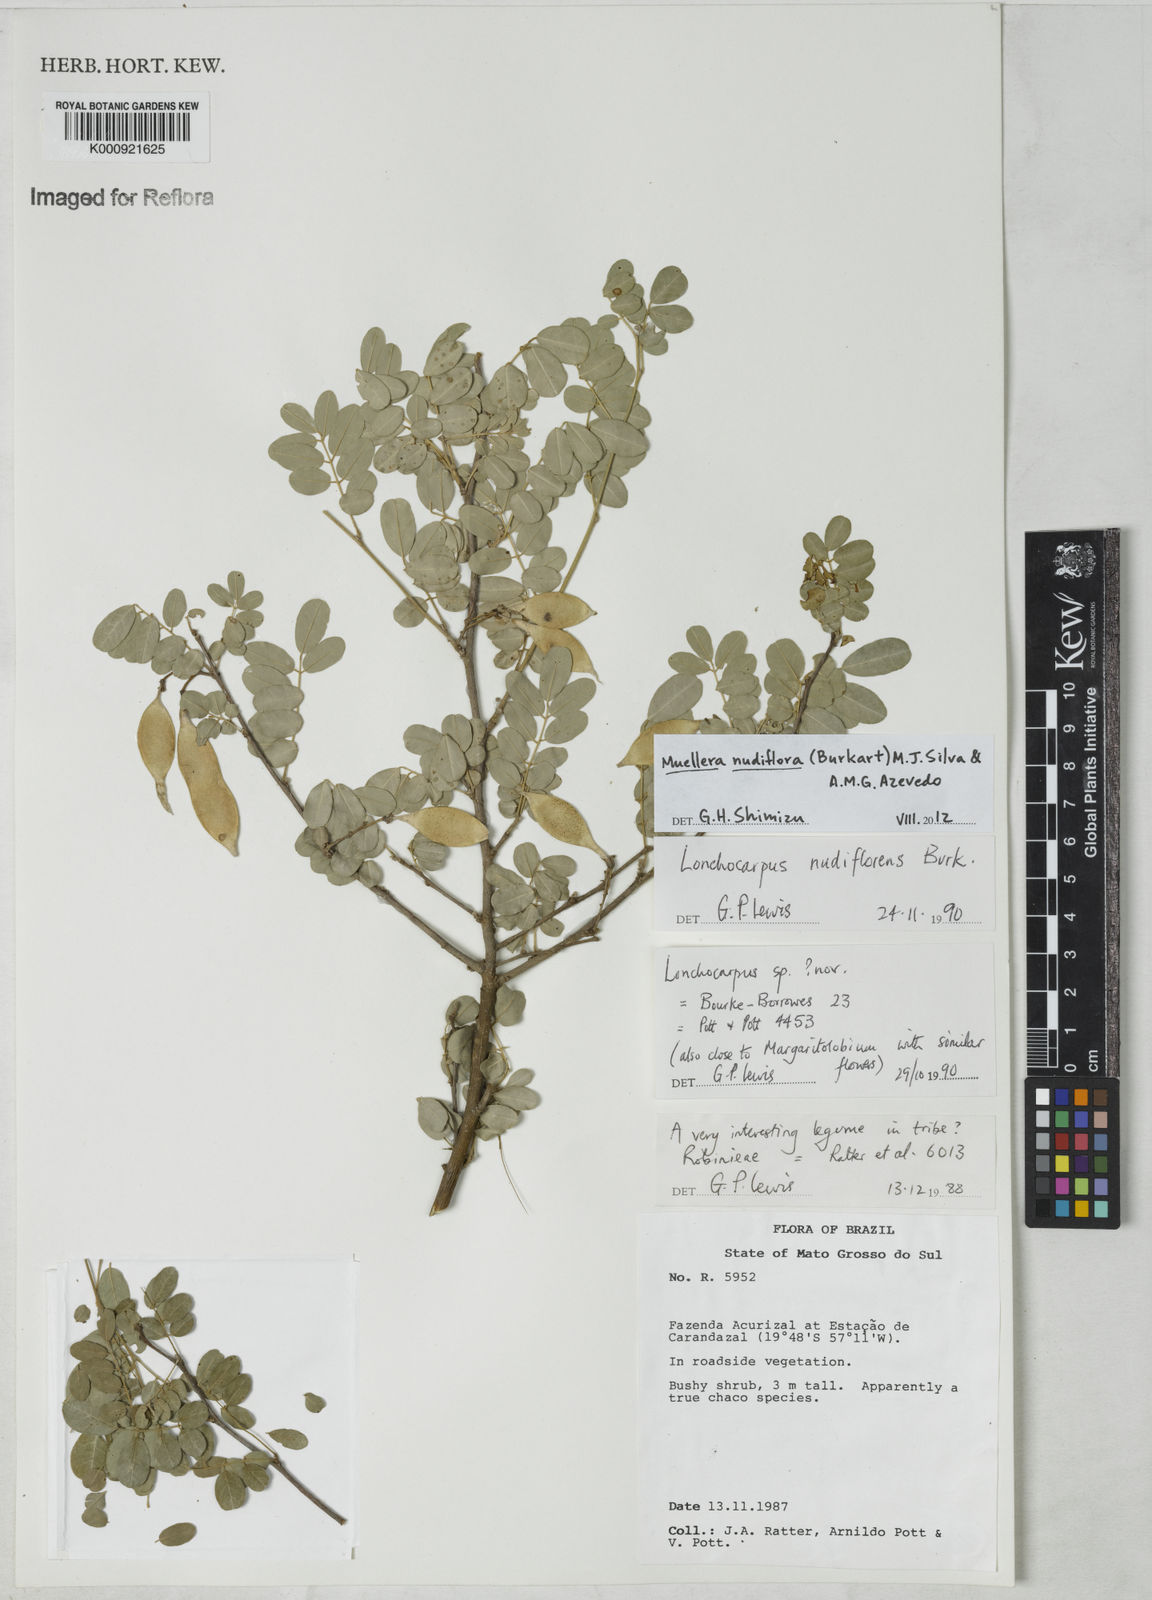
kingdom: Plantae
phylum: Tracheophyta
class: Magnoliopsida
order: Fabales
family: Fabaceae
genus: Muellera
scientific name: Muellera
